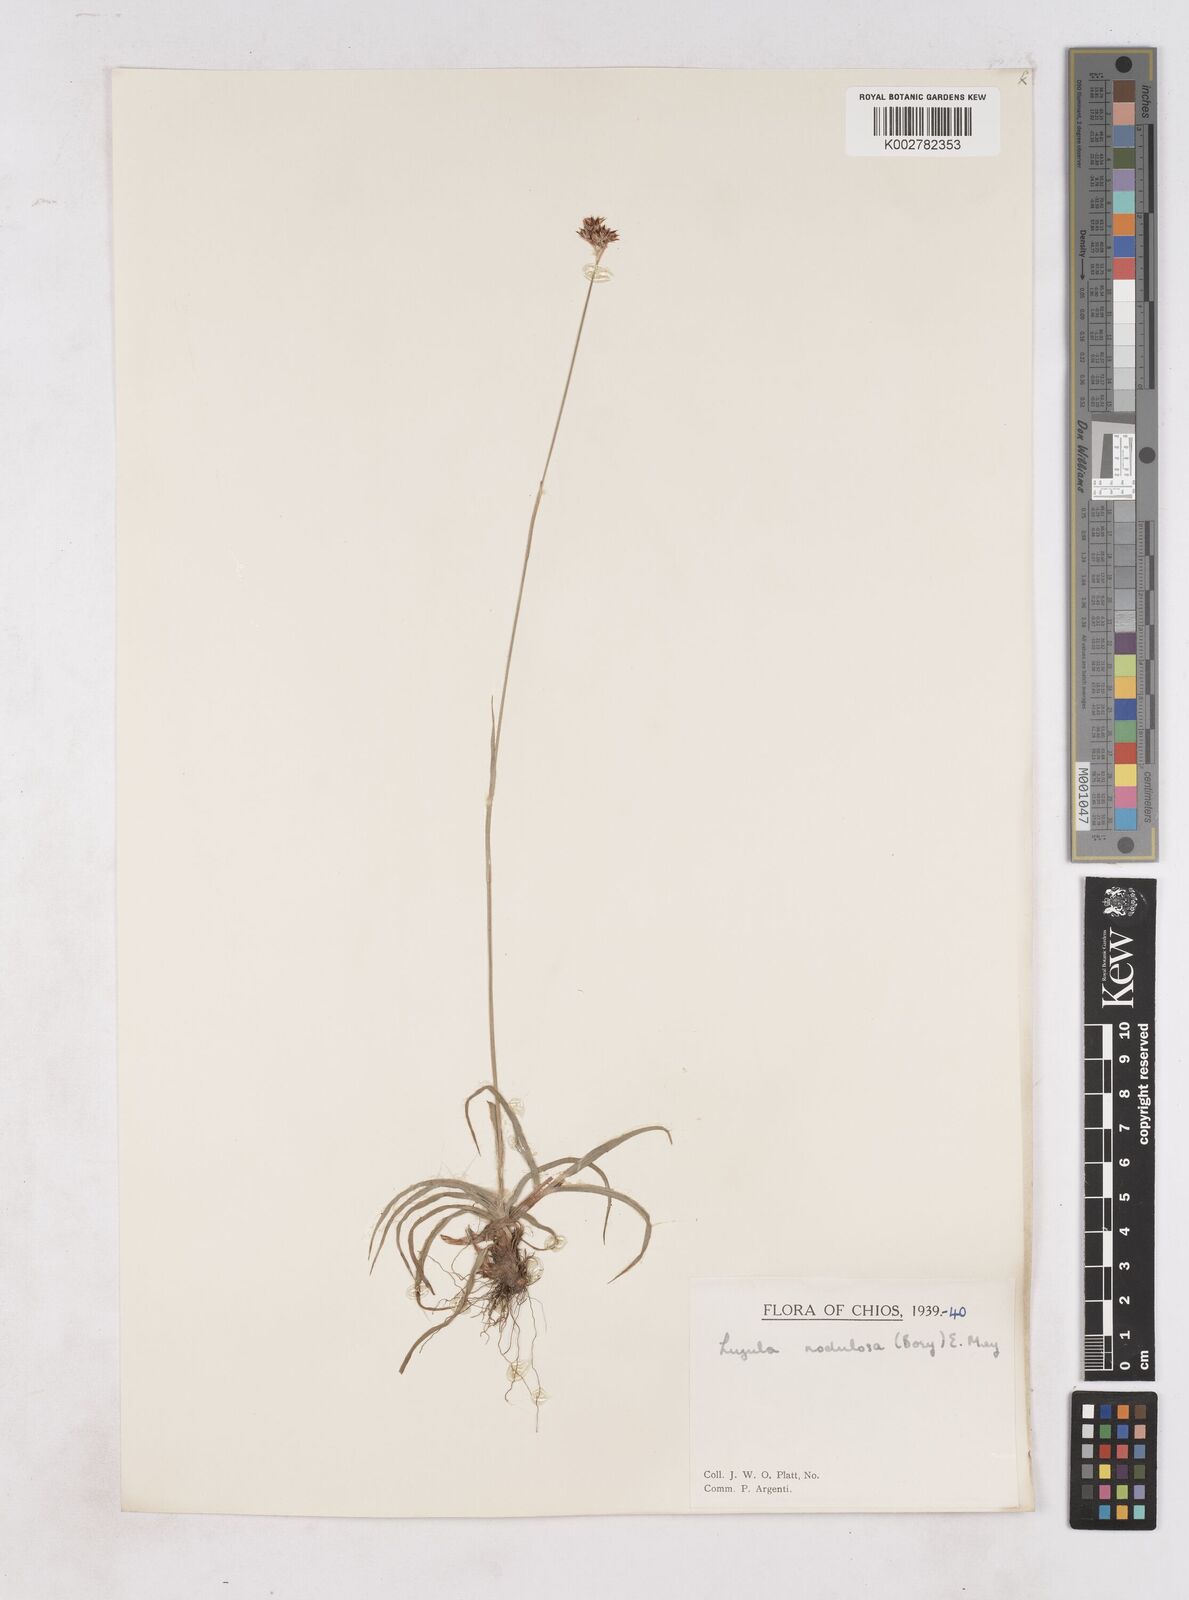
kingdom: Plantae
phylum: Tracheophyta
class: Liliopsida
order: Poales
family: Juncaceae
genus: Luzula
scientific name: Luzula nodulosa
